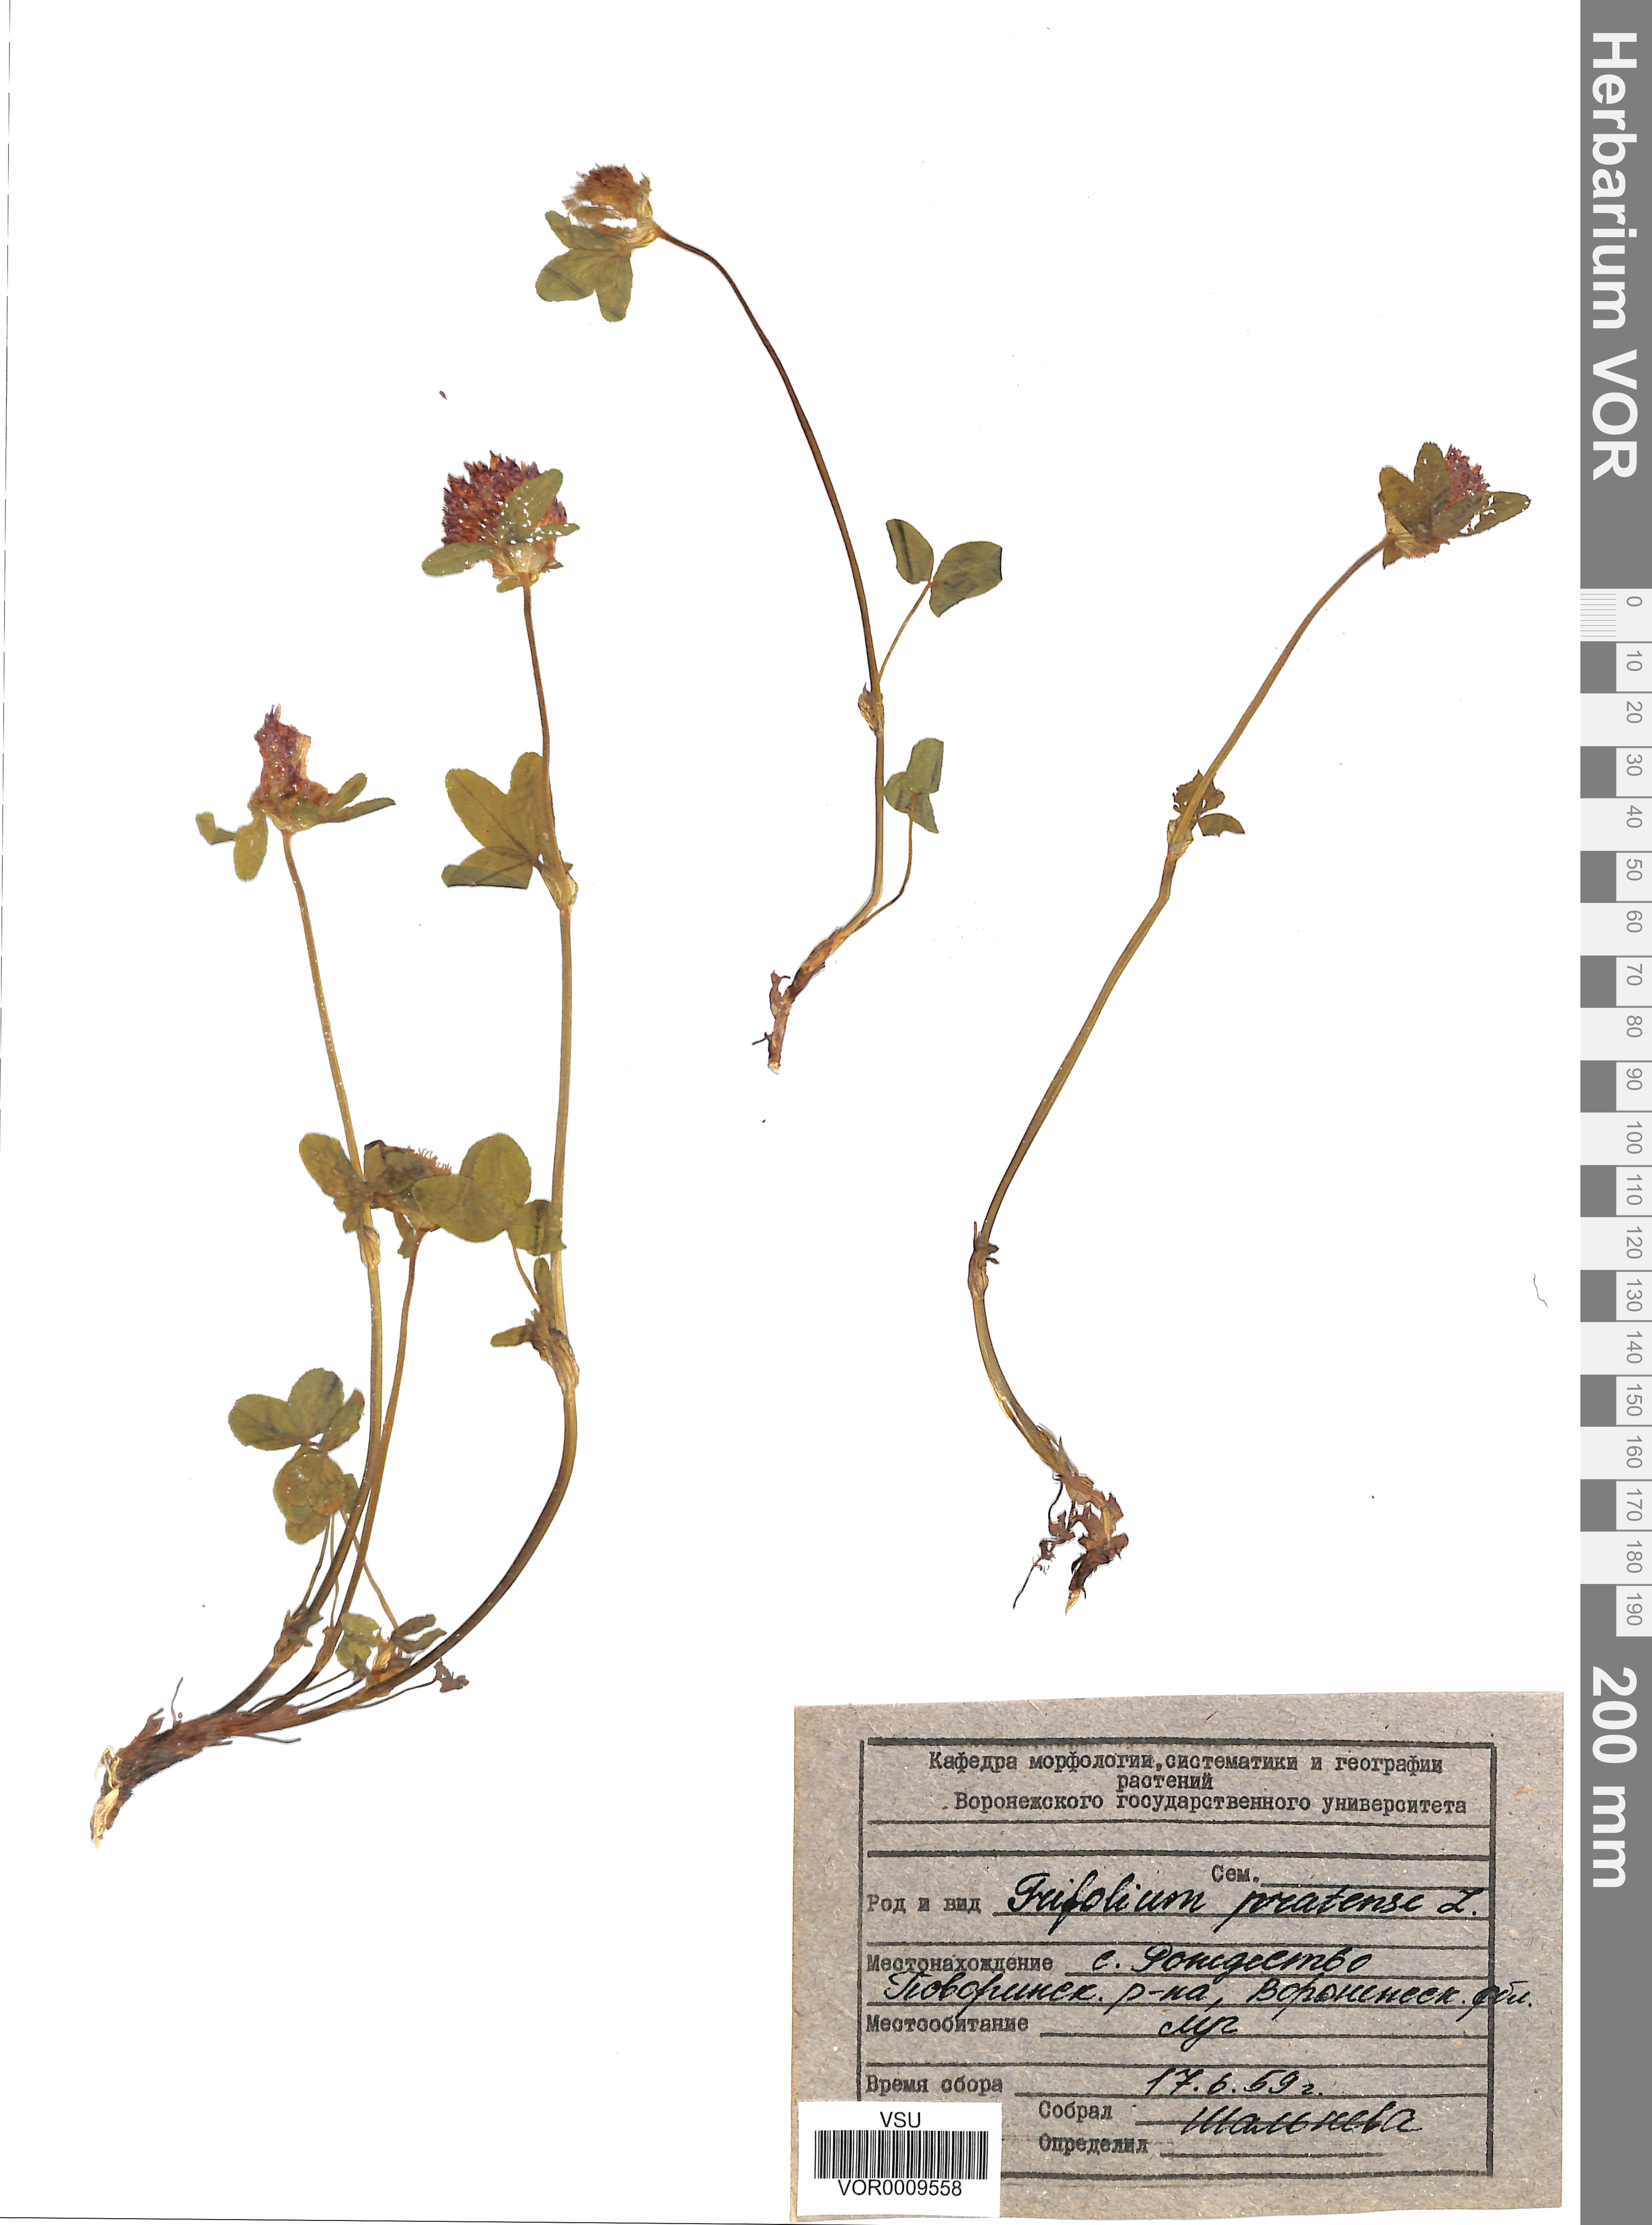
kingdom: Plantae
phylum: Tracheophyta
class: Magnoliopsida
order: Fabales
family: Fabaceae
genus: Trifolium
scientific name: Trifolium pratense
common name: Red clover
